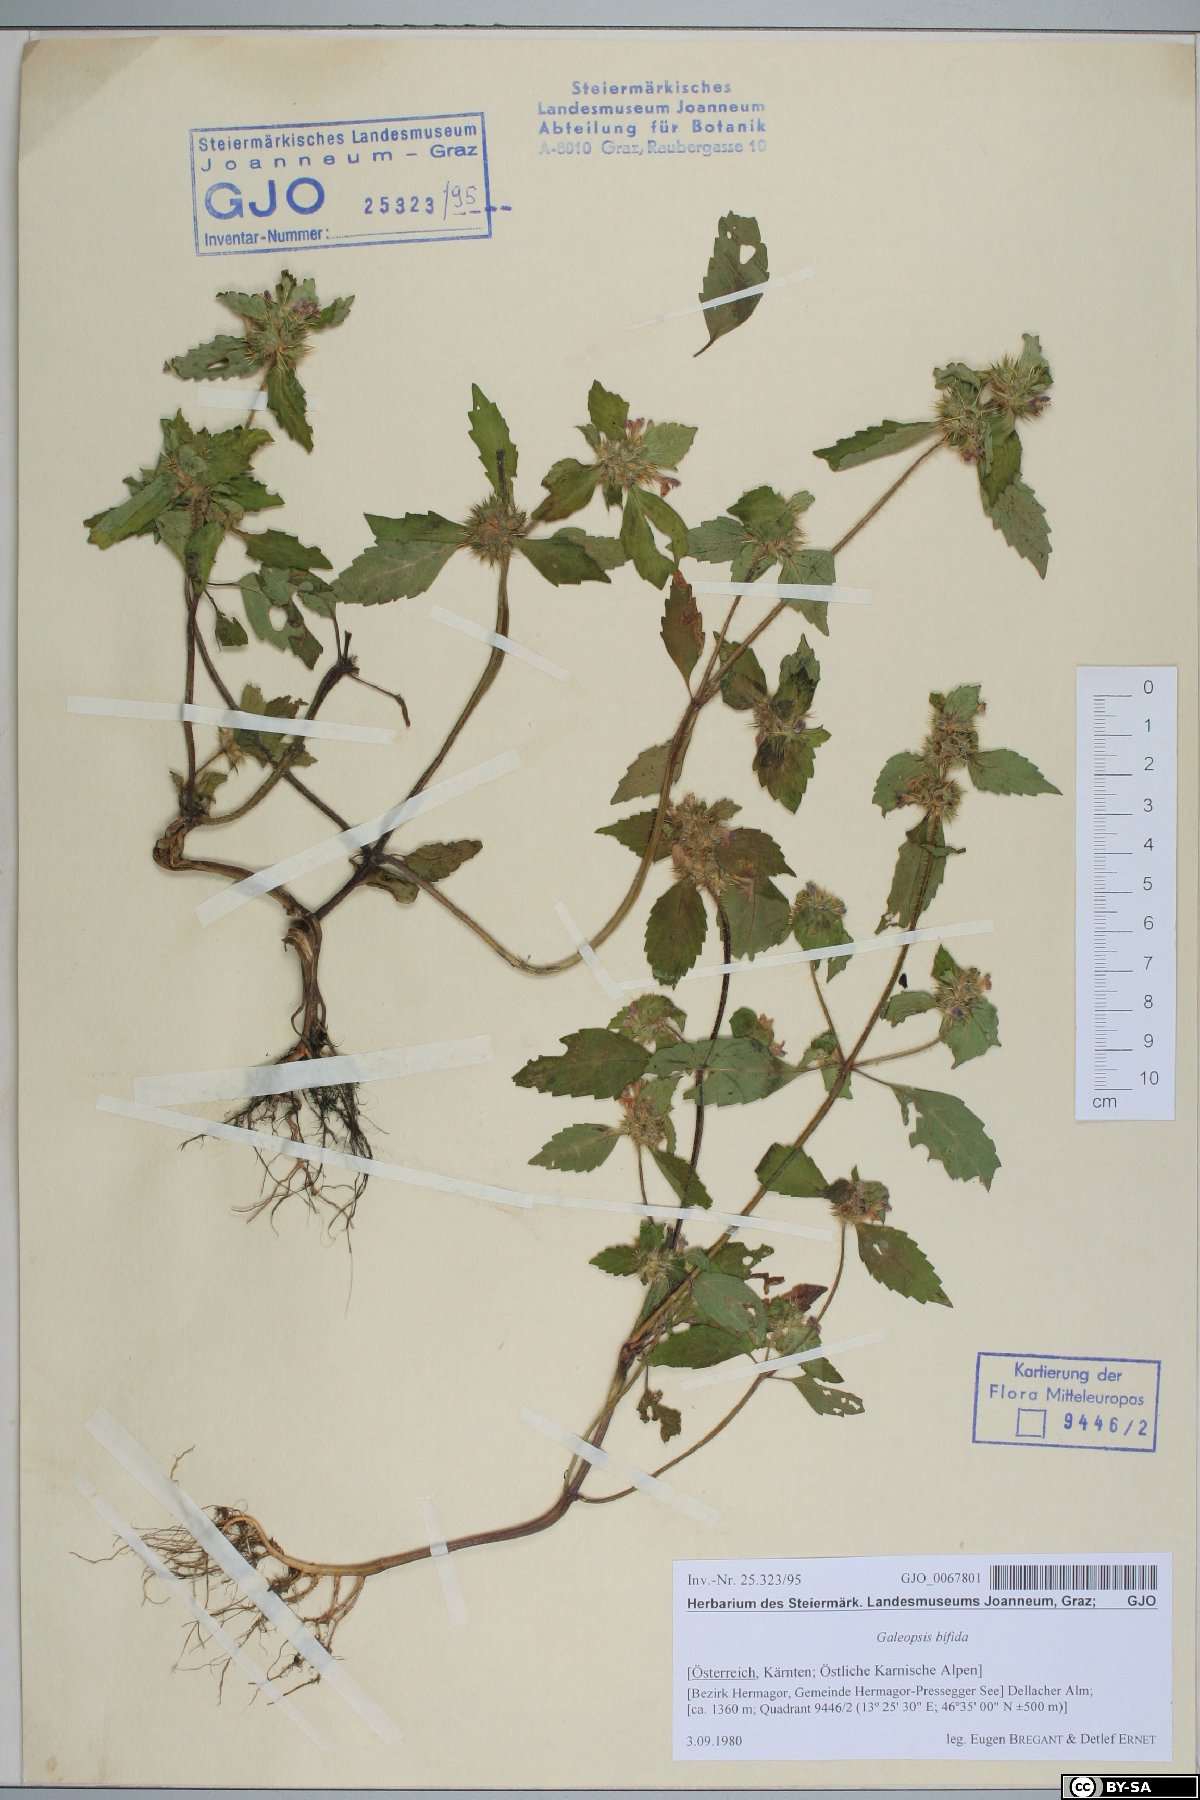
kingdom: Plantae
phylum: Tracheophyta
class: Magnoliopsida
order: Lamiales
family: Lamiaceae
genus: Galeopsis
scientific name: Galeopsis bifida
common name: Bifid hemp-nettle
